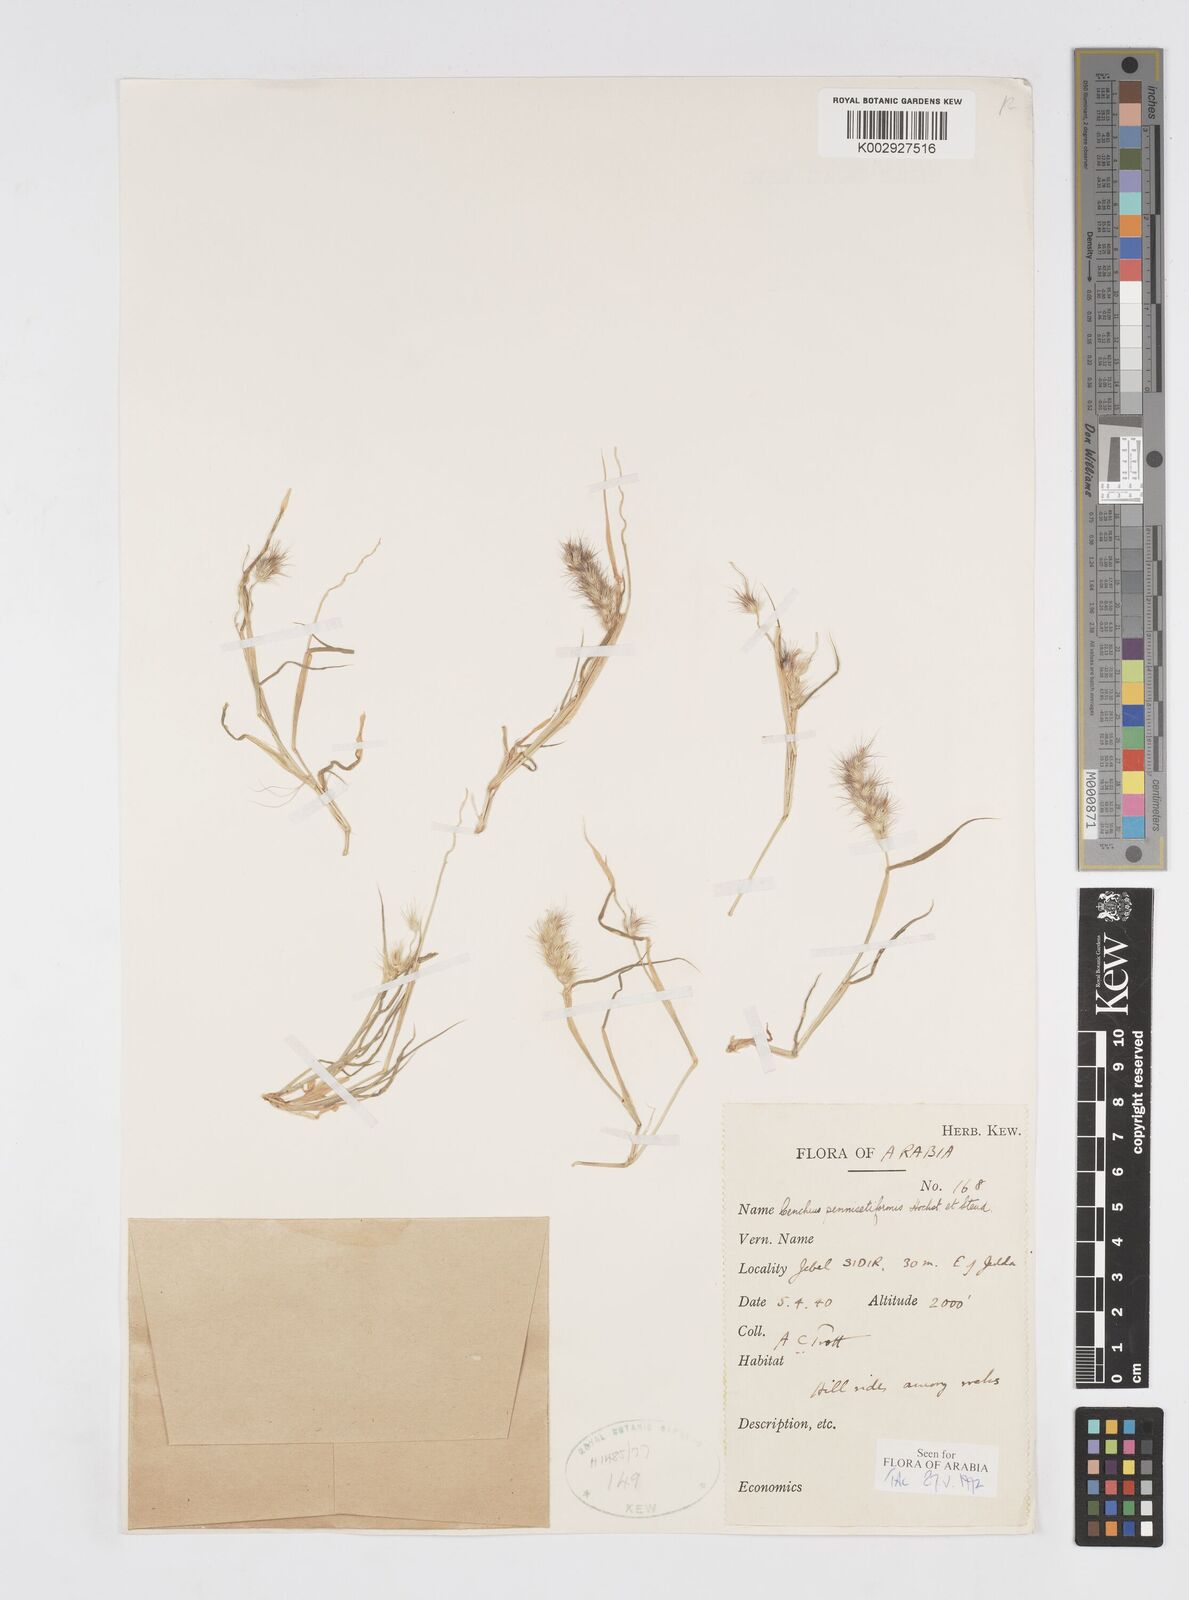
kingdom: Plantae
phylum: Tracheophyta
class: Liliopsida
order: Poales
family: Poaceae
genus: Cenchrus
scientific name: Cenchrus pennisetiformis
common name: Cloncurry
